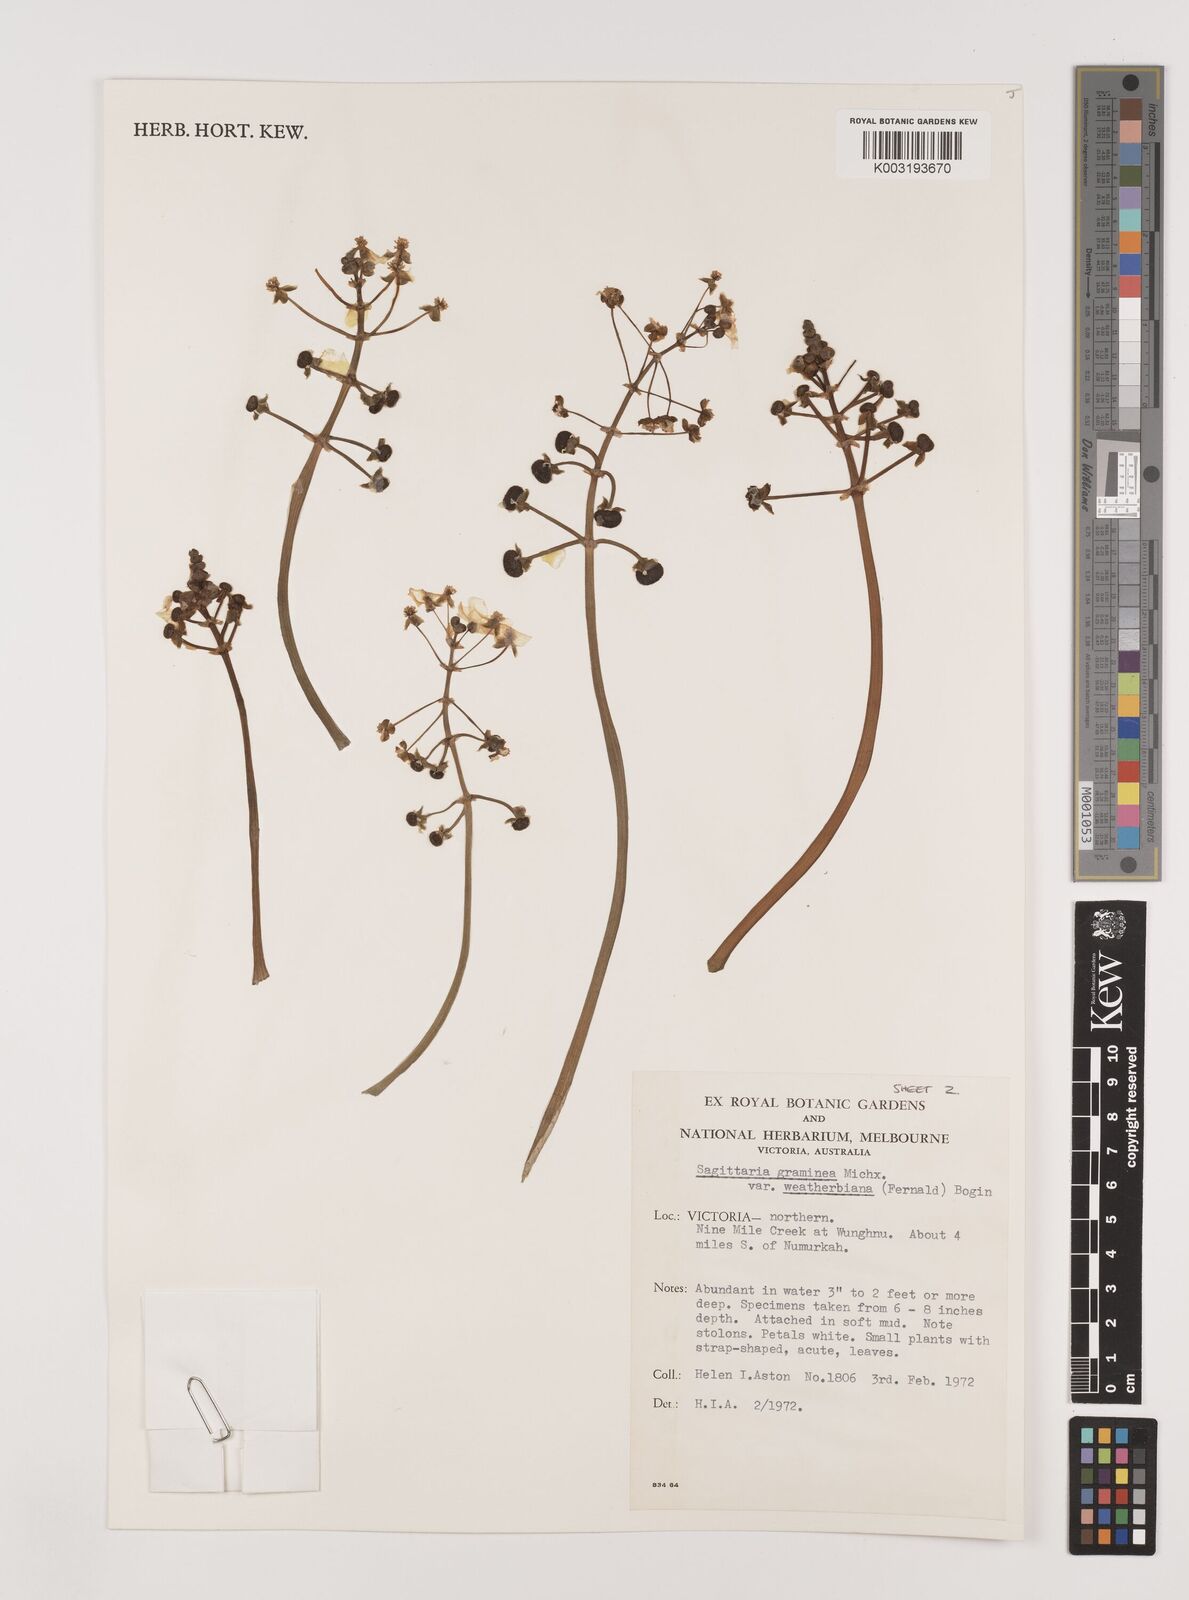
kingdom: Plantae
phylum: Tracheophyta
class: Liliopsida
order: Alismatales
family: Alismataceae
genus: Sagittaria
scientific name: Sagittaria graminea
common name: Grass-leaved arrowhead
